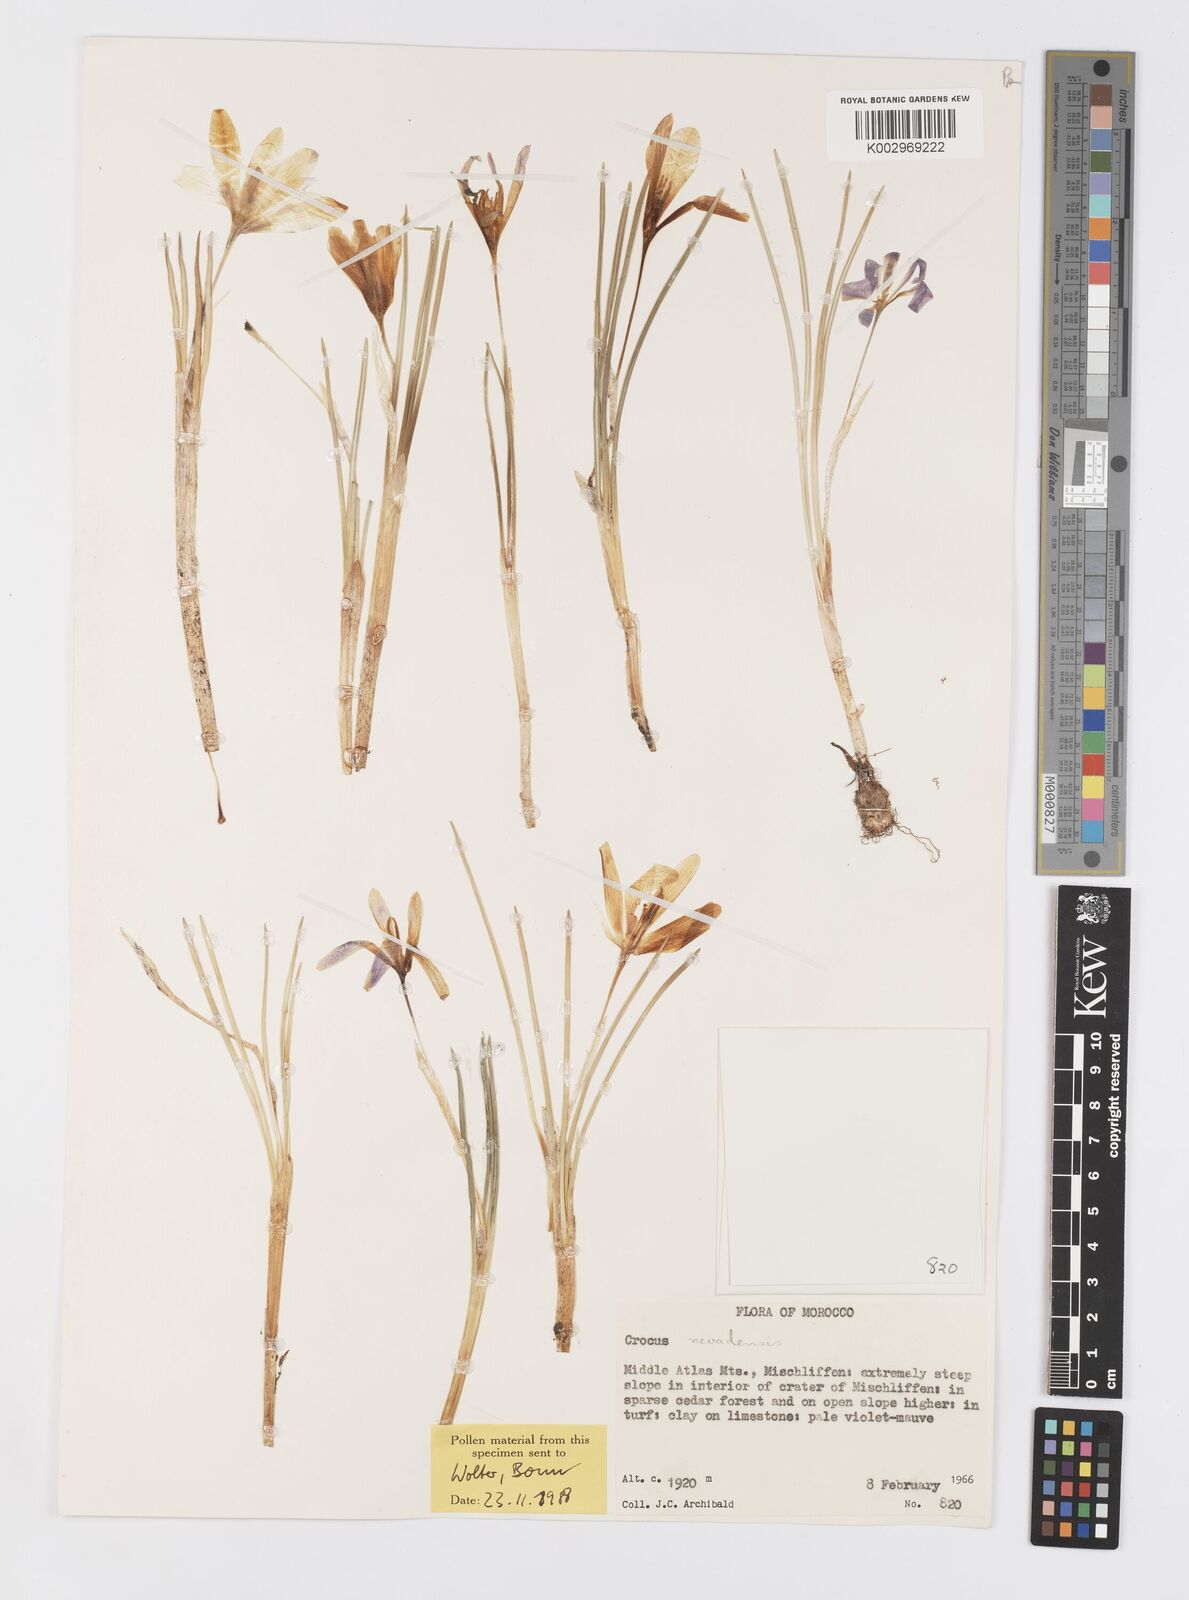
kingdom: Plantae
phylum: Tracheophyta
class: Liliopsida
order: Asparagales
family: Iridaceae
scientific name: Iridaceae
